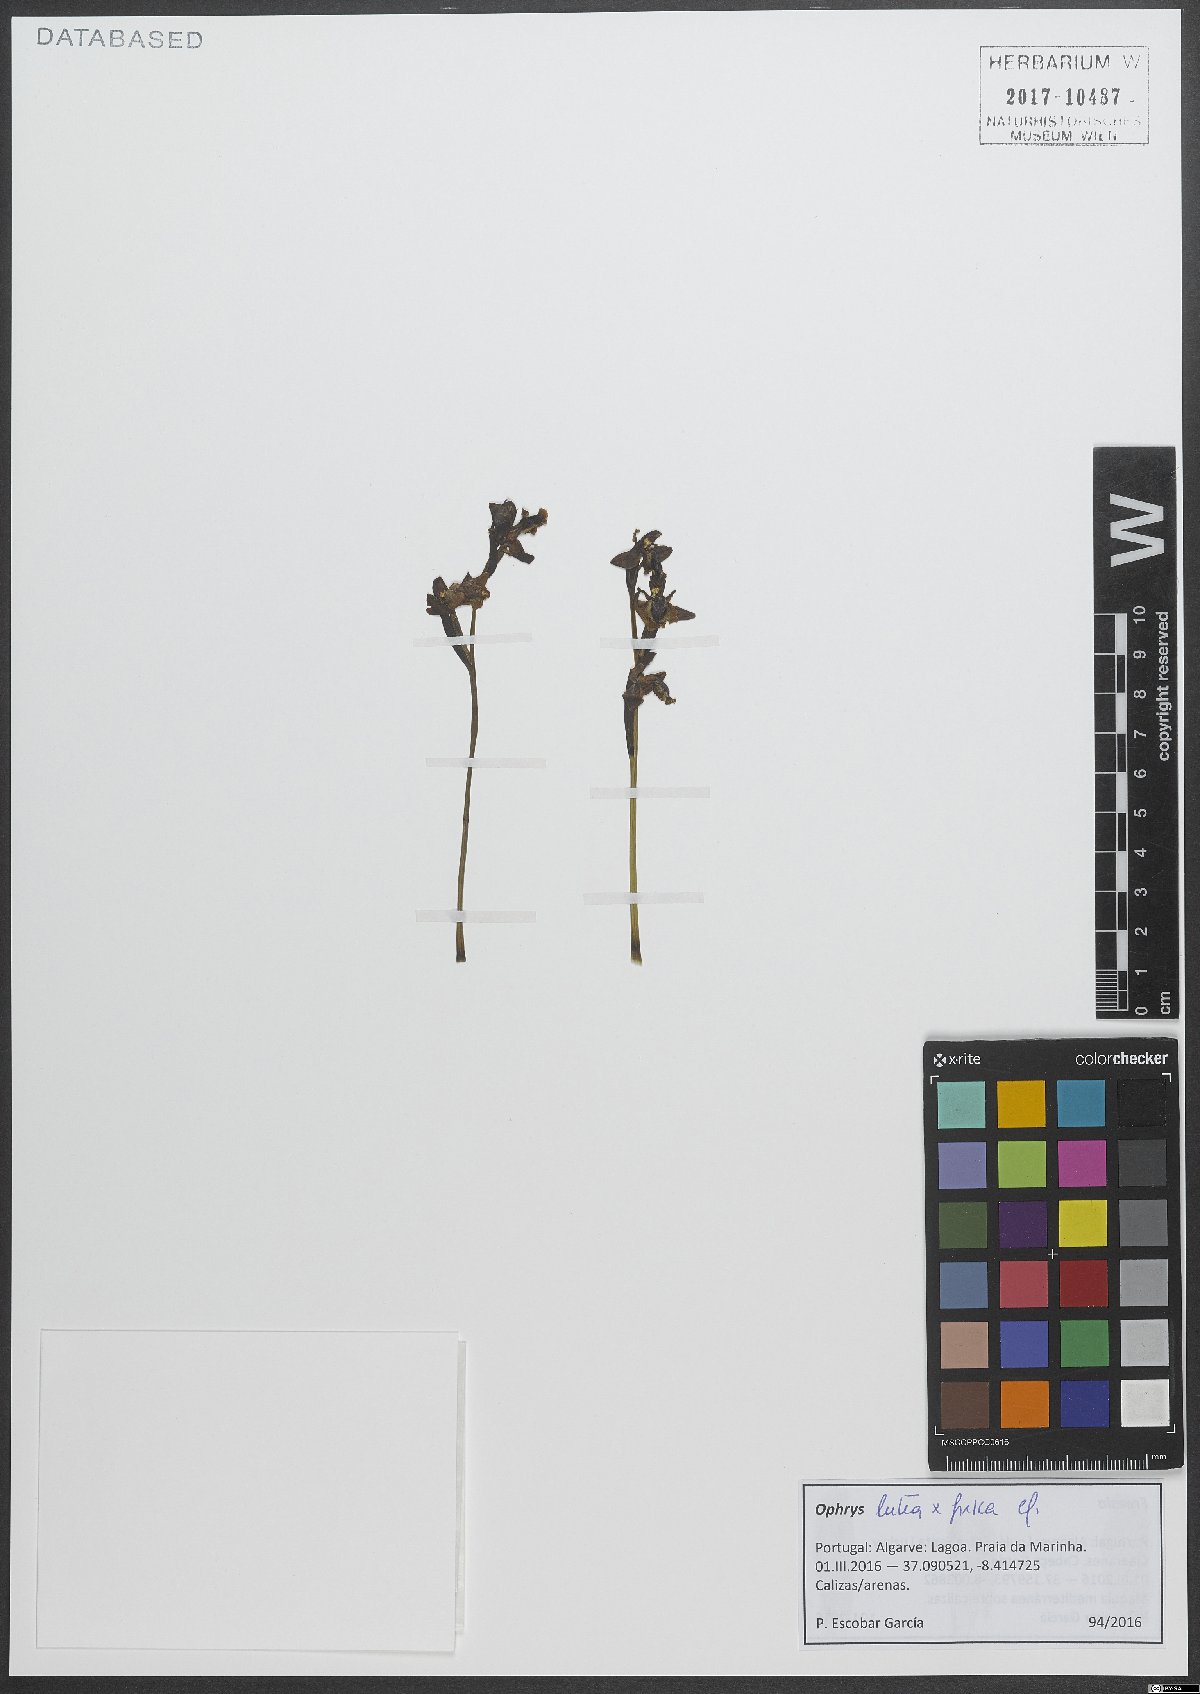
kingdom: Plantae
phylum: Tracheophyta
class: Liliopsida
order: Asparagales
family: Orchidaceae
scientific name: Orchidaceae
